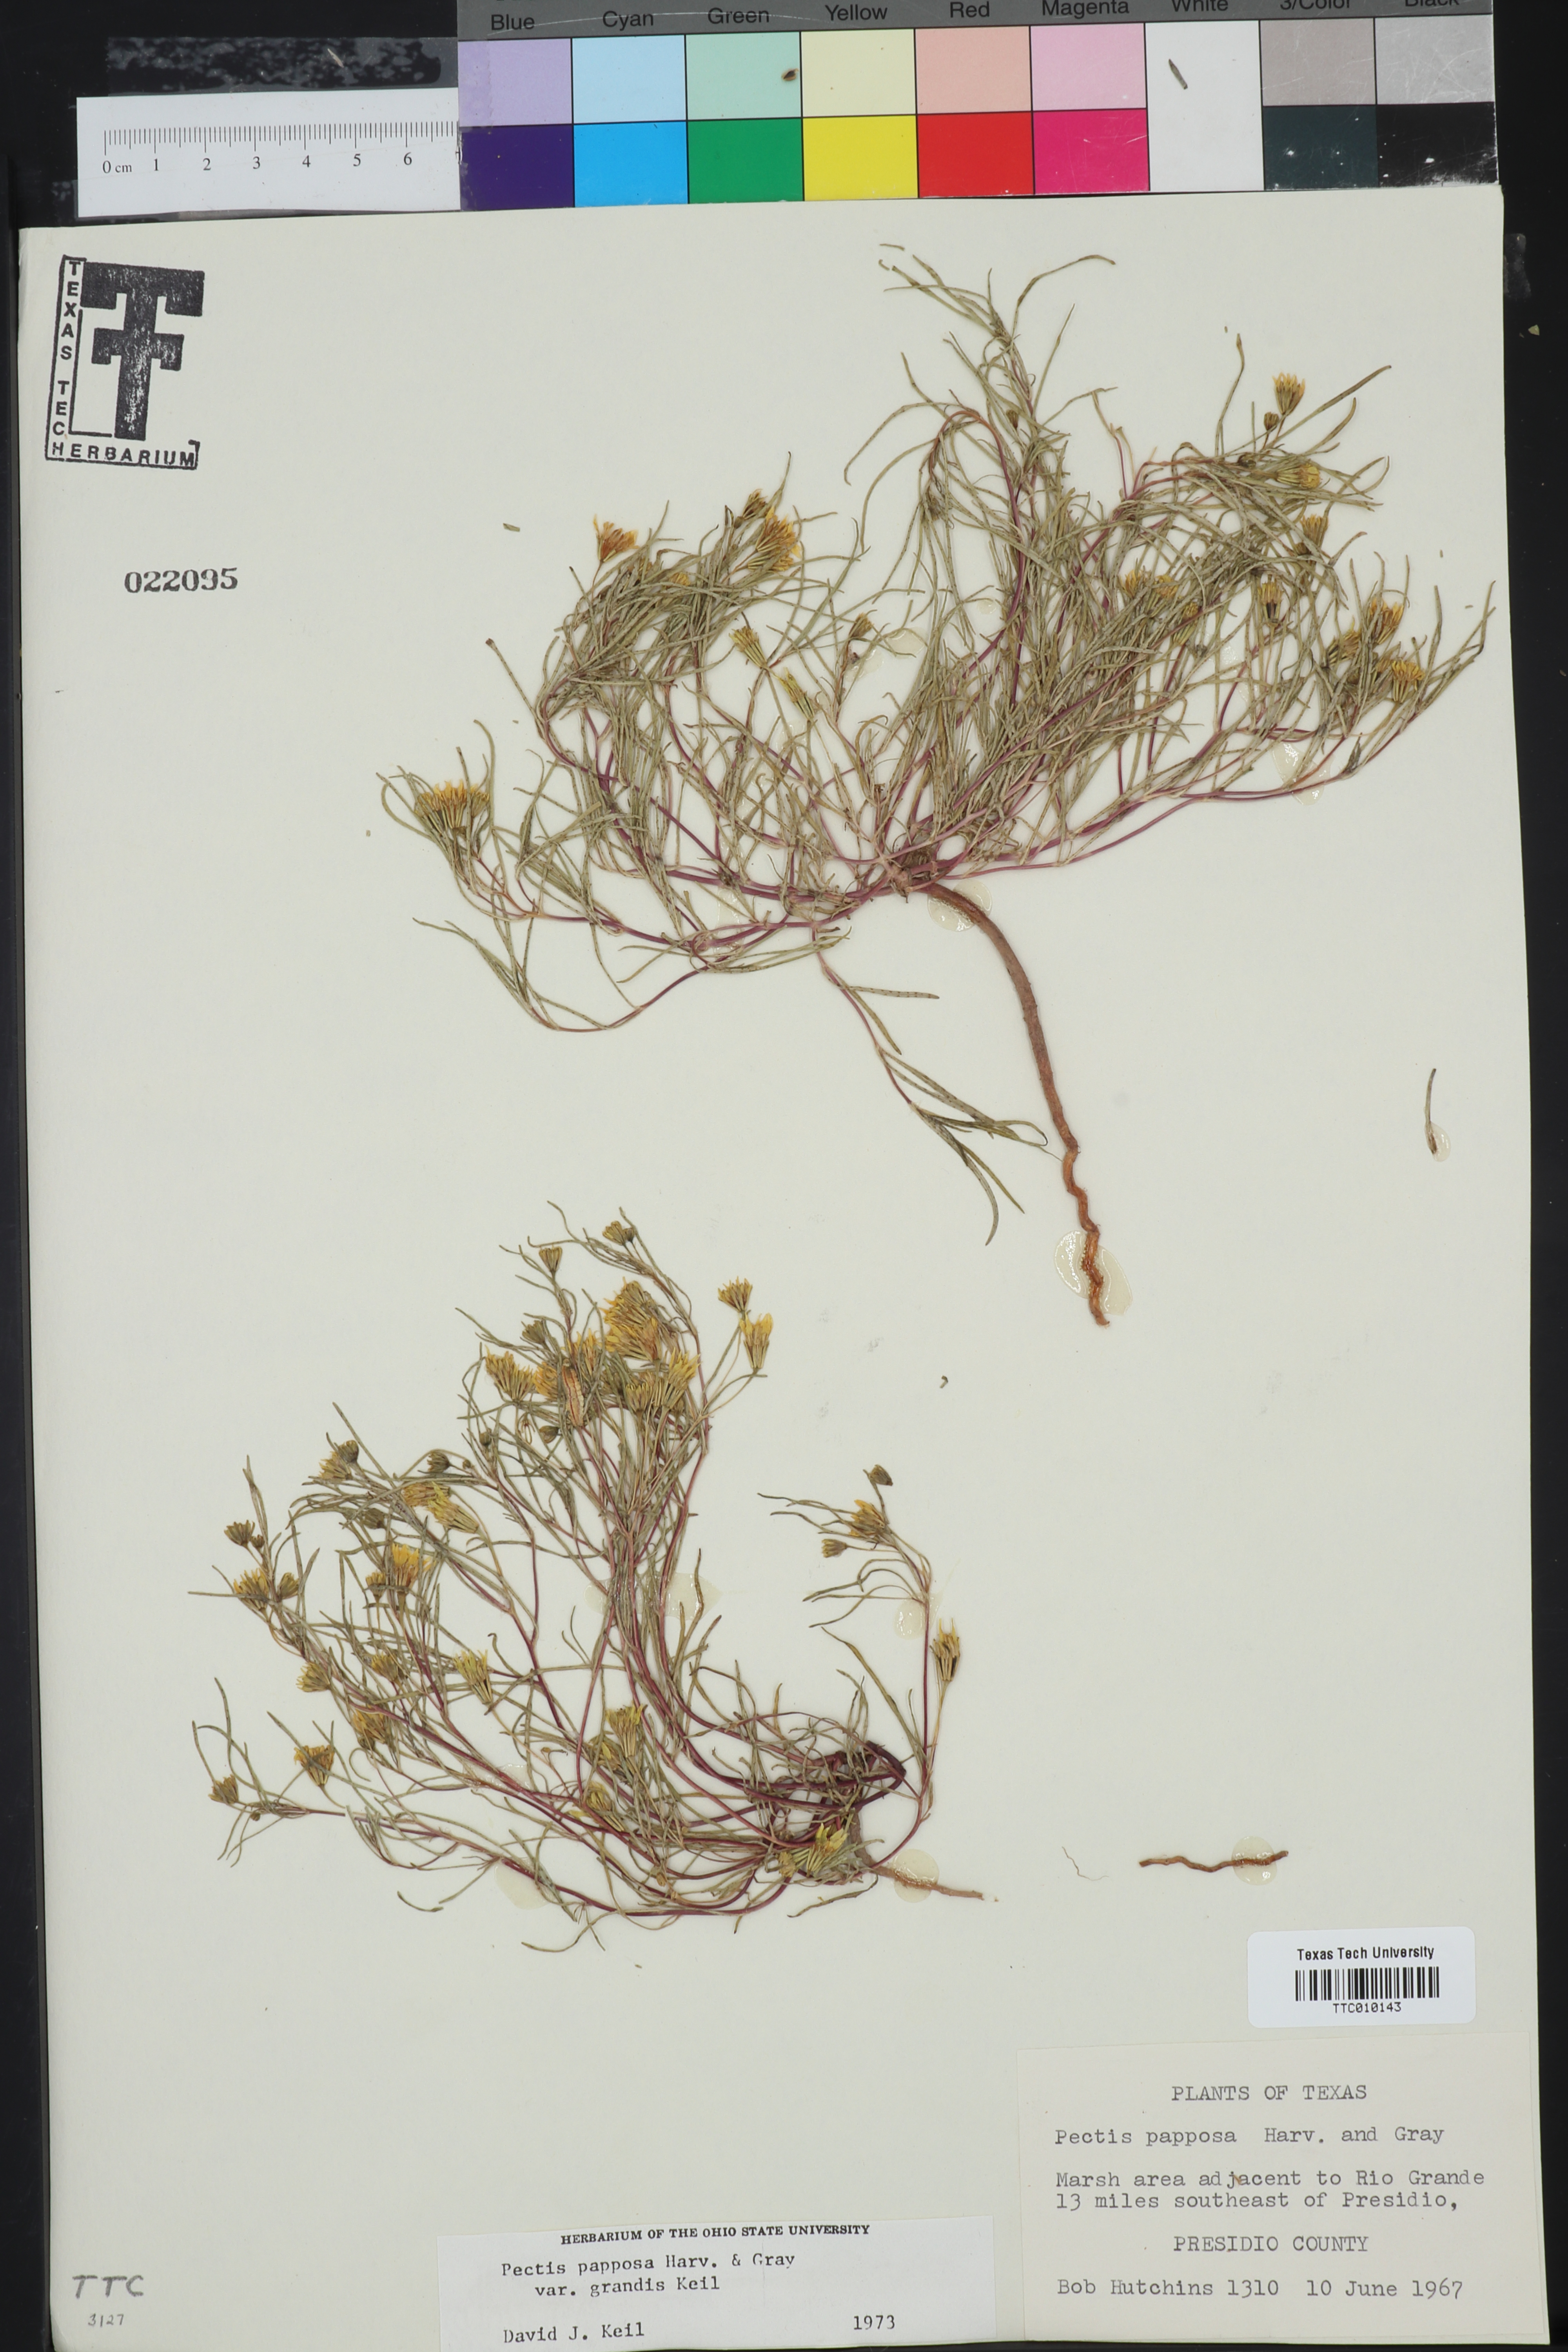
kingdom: Plantae
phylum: Tracheophyta
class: Magnoliopsida
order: Asterales
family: Asteraceae
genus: Pectis
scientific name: Pectis papposa
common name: Many-bristle chinchweed
